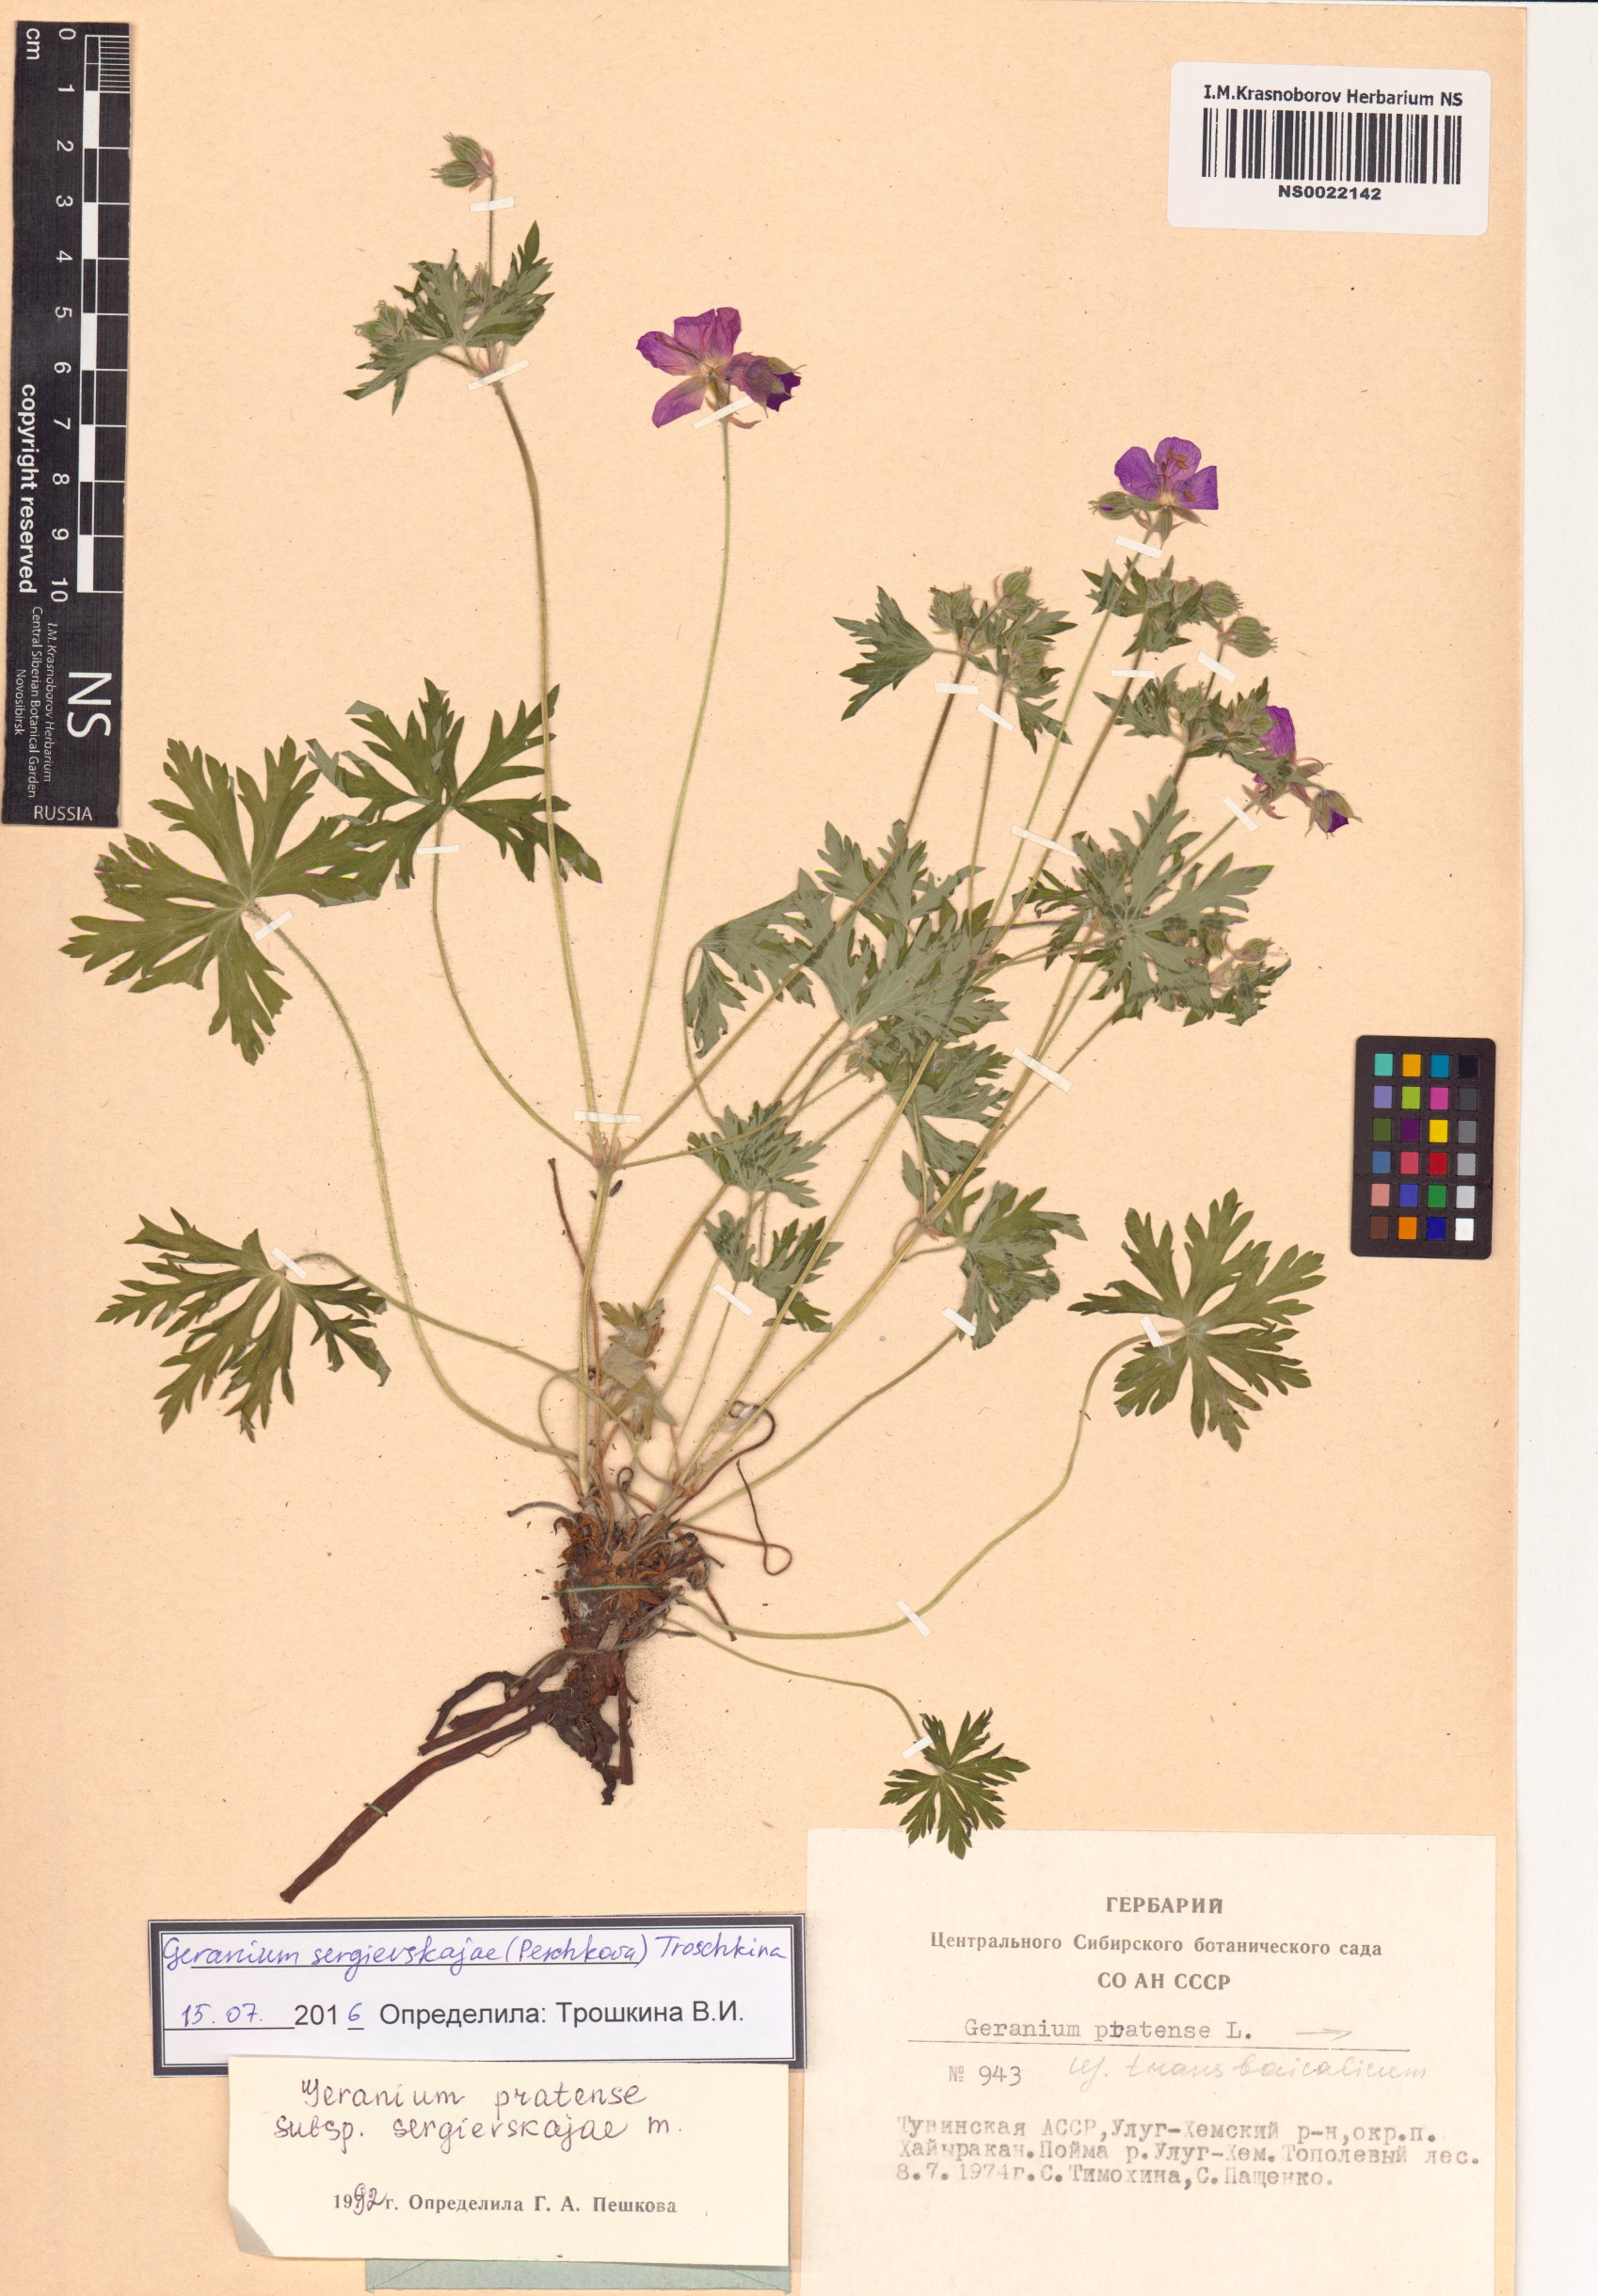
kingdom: Plantae
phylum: Tracheophyta
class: Magnoliopsida
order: Geraniales
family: Geraniaceae
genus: Geranium
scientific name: Geranium pratense
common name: Meadow crane's-bill
